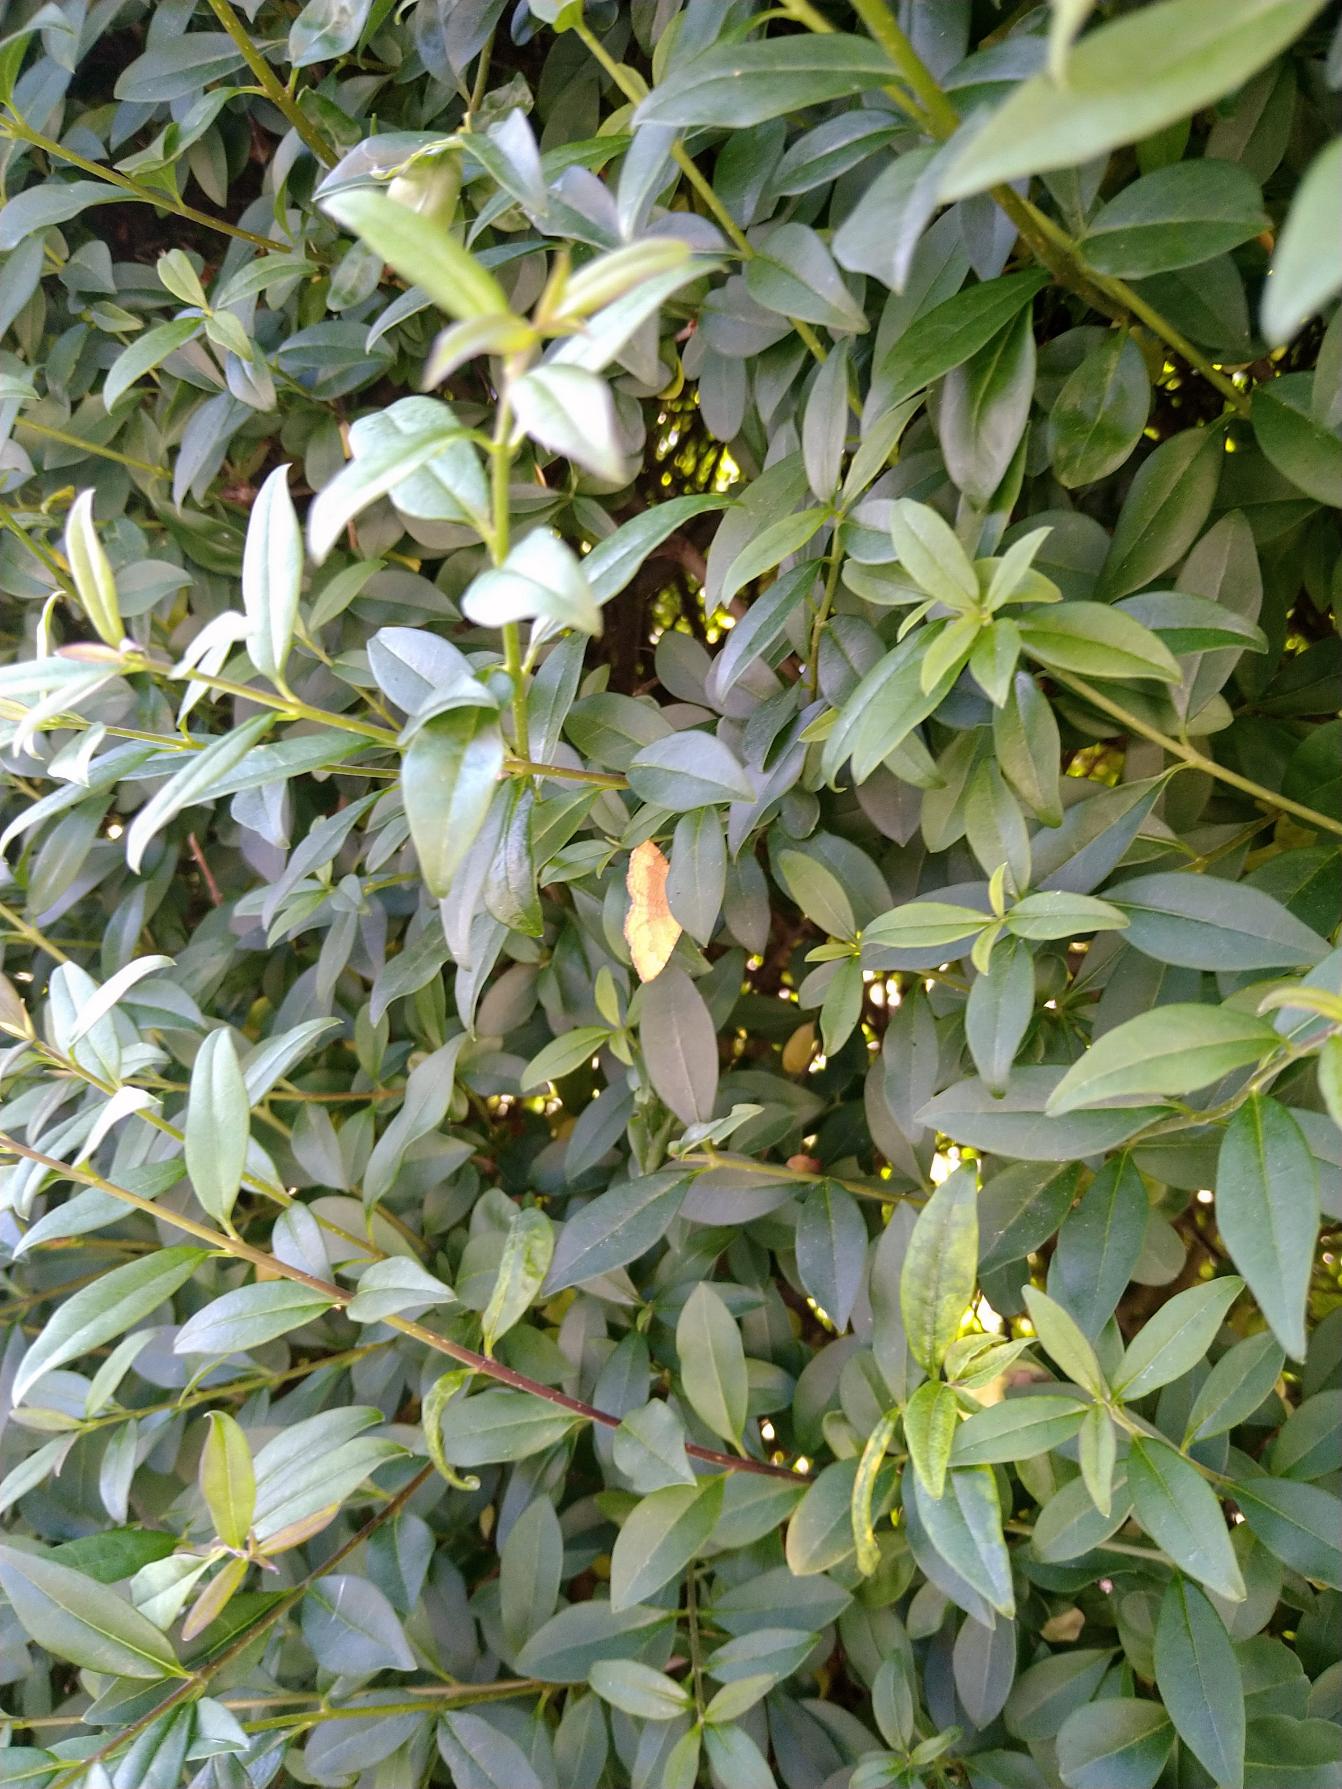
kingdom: Plantae
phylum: Tracheophyta
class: Magnoliopsida
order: Lamiales
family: Oleaceae
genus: Ligustrum
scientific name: Ligustrum vulgare
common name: Liguster
